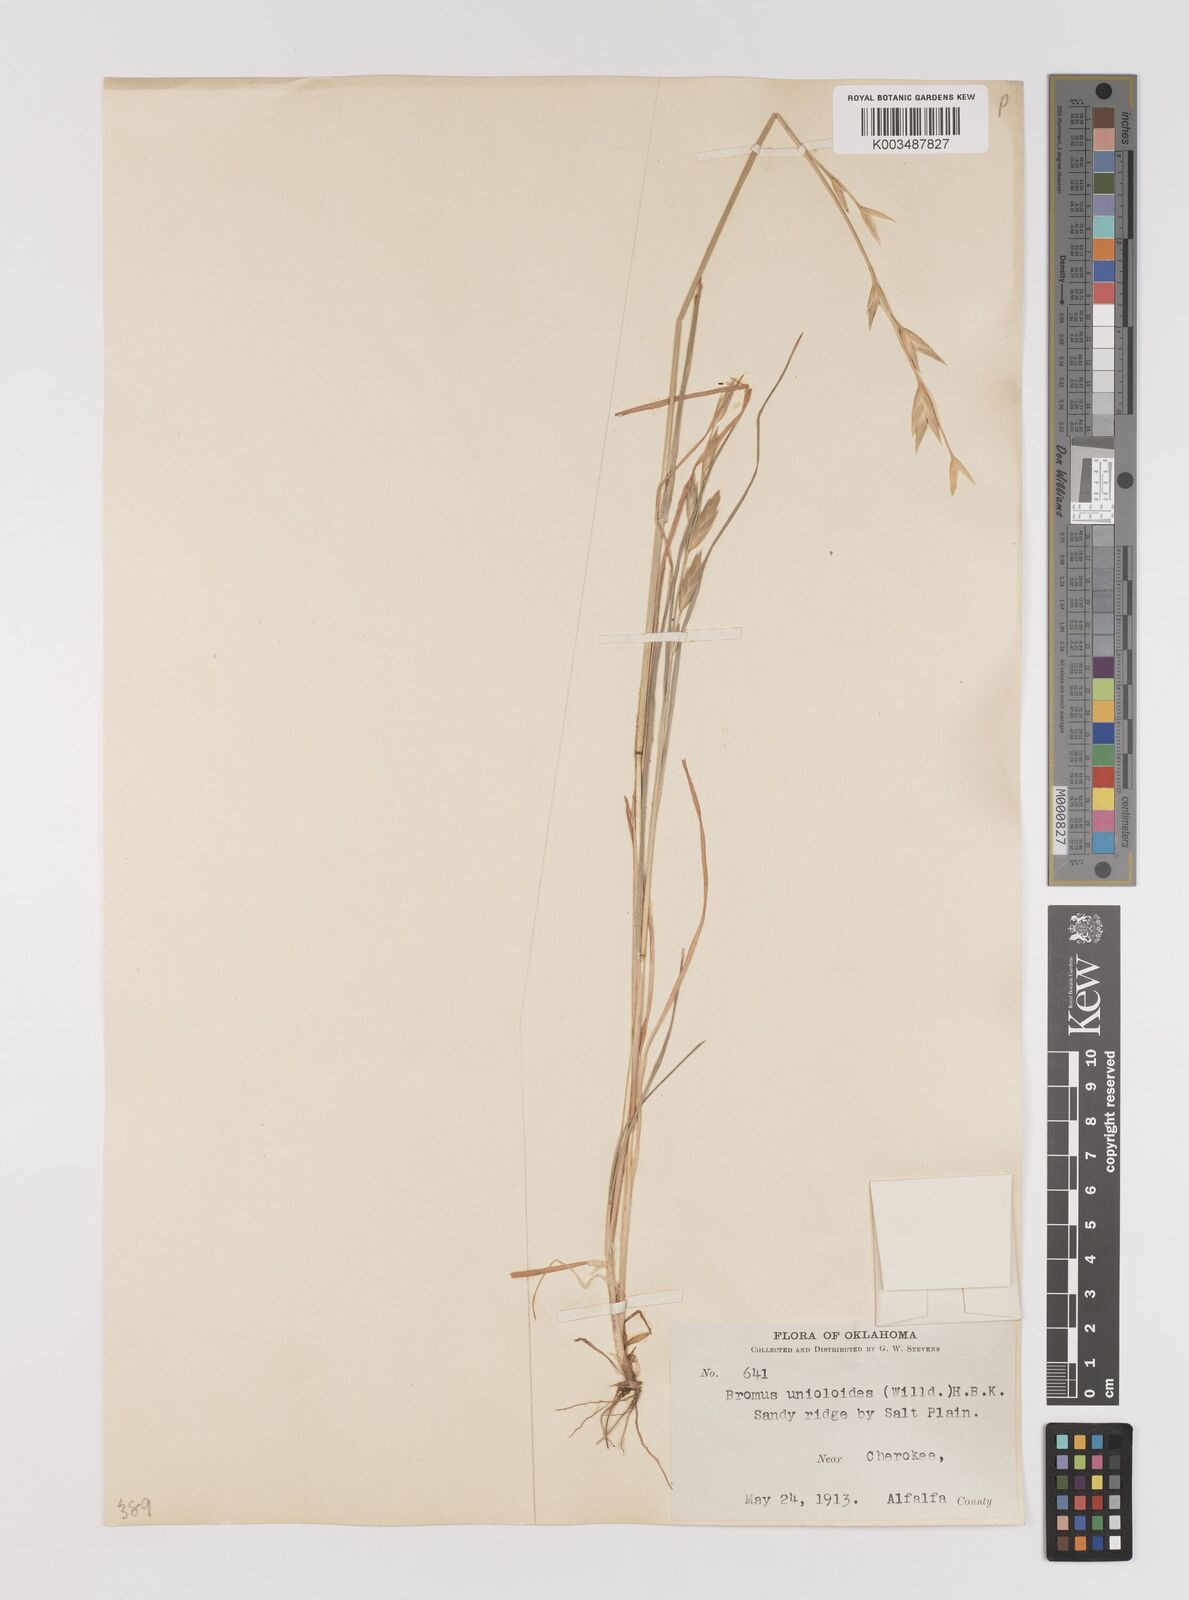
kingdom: Plantae
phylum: Tracheophyta
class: Liliopsida
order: Poales
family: Poaceae
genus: Bromus
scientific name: Bromus catharticus
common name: Rescuegrass
